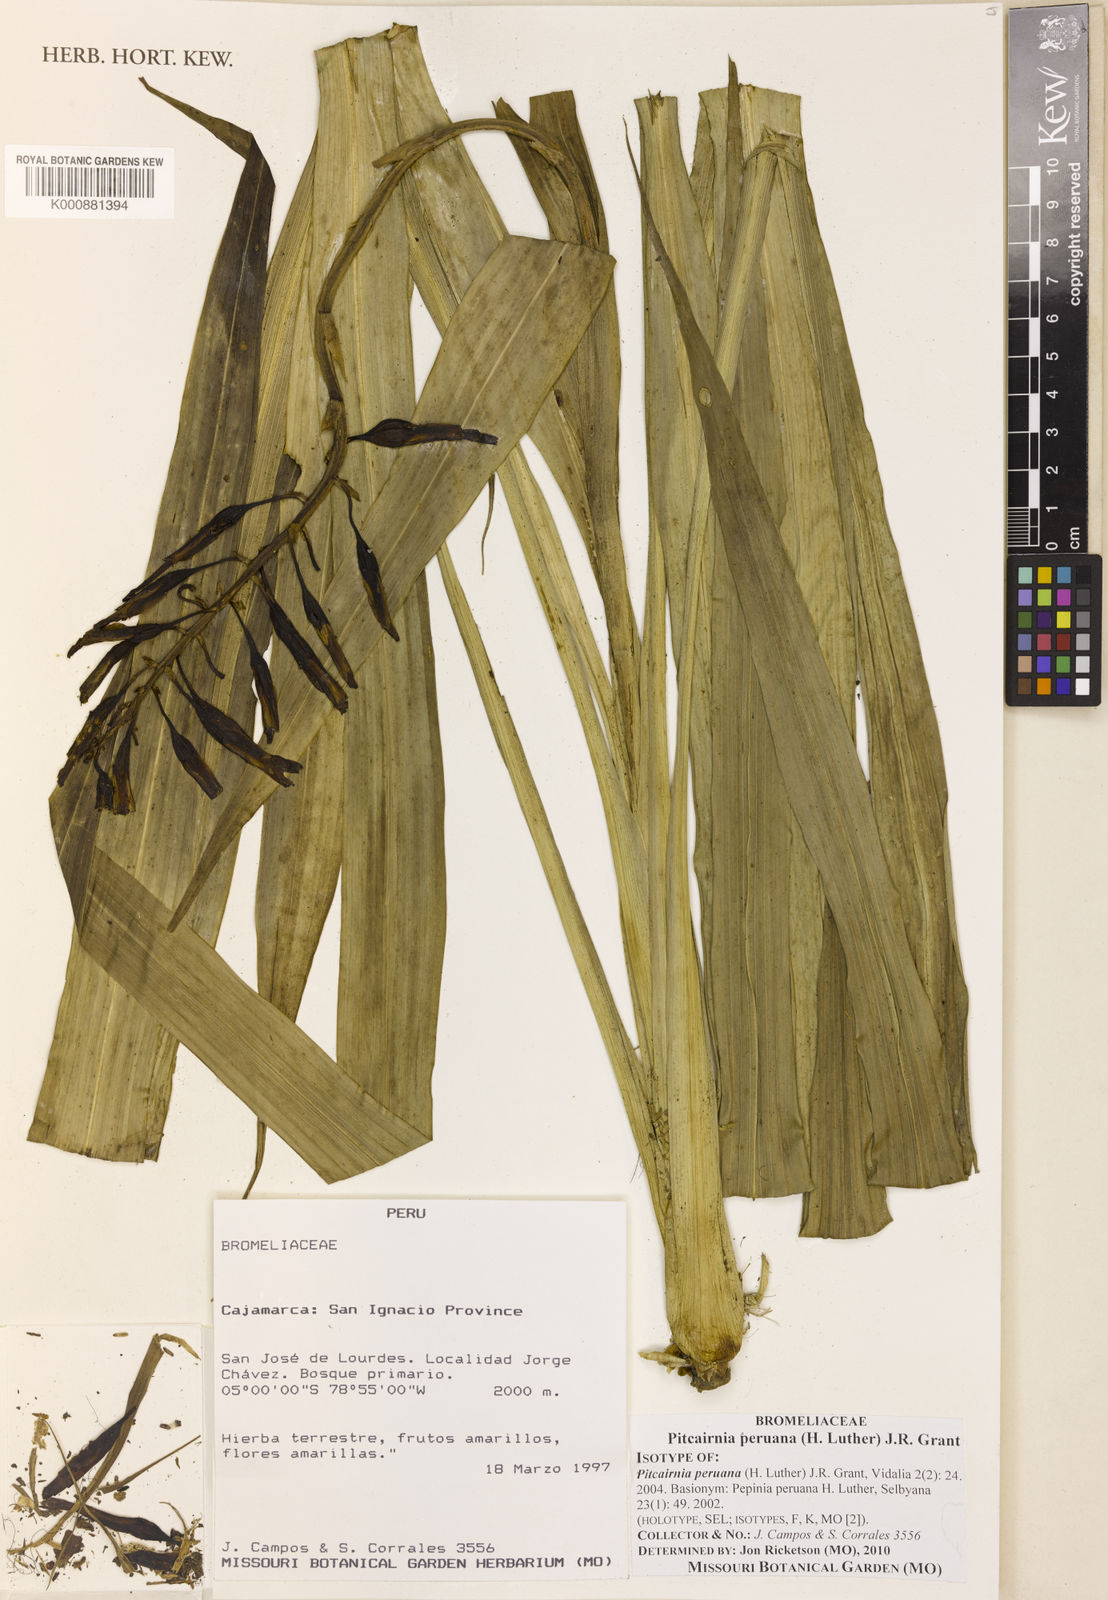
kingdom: Plantae
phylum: Tracheophyta
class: Liliopsida
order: Poales
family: Bromeliaceae
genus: Pitcairnia
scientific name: Pitcairnia peruana
